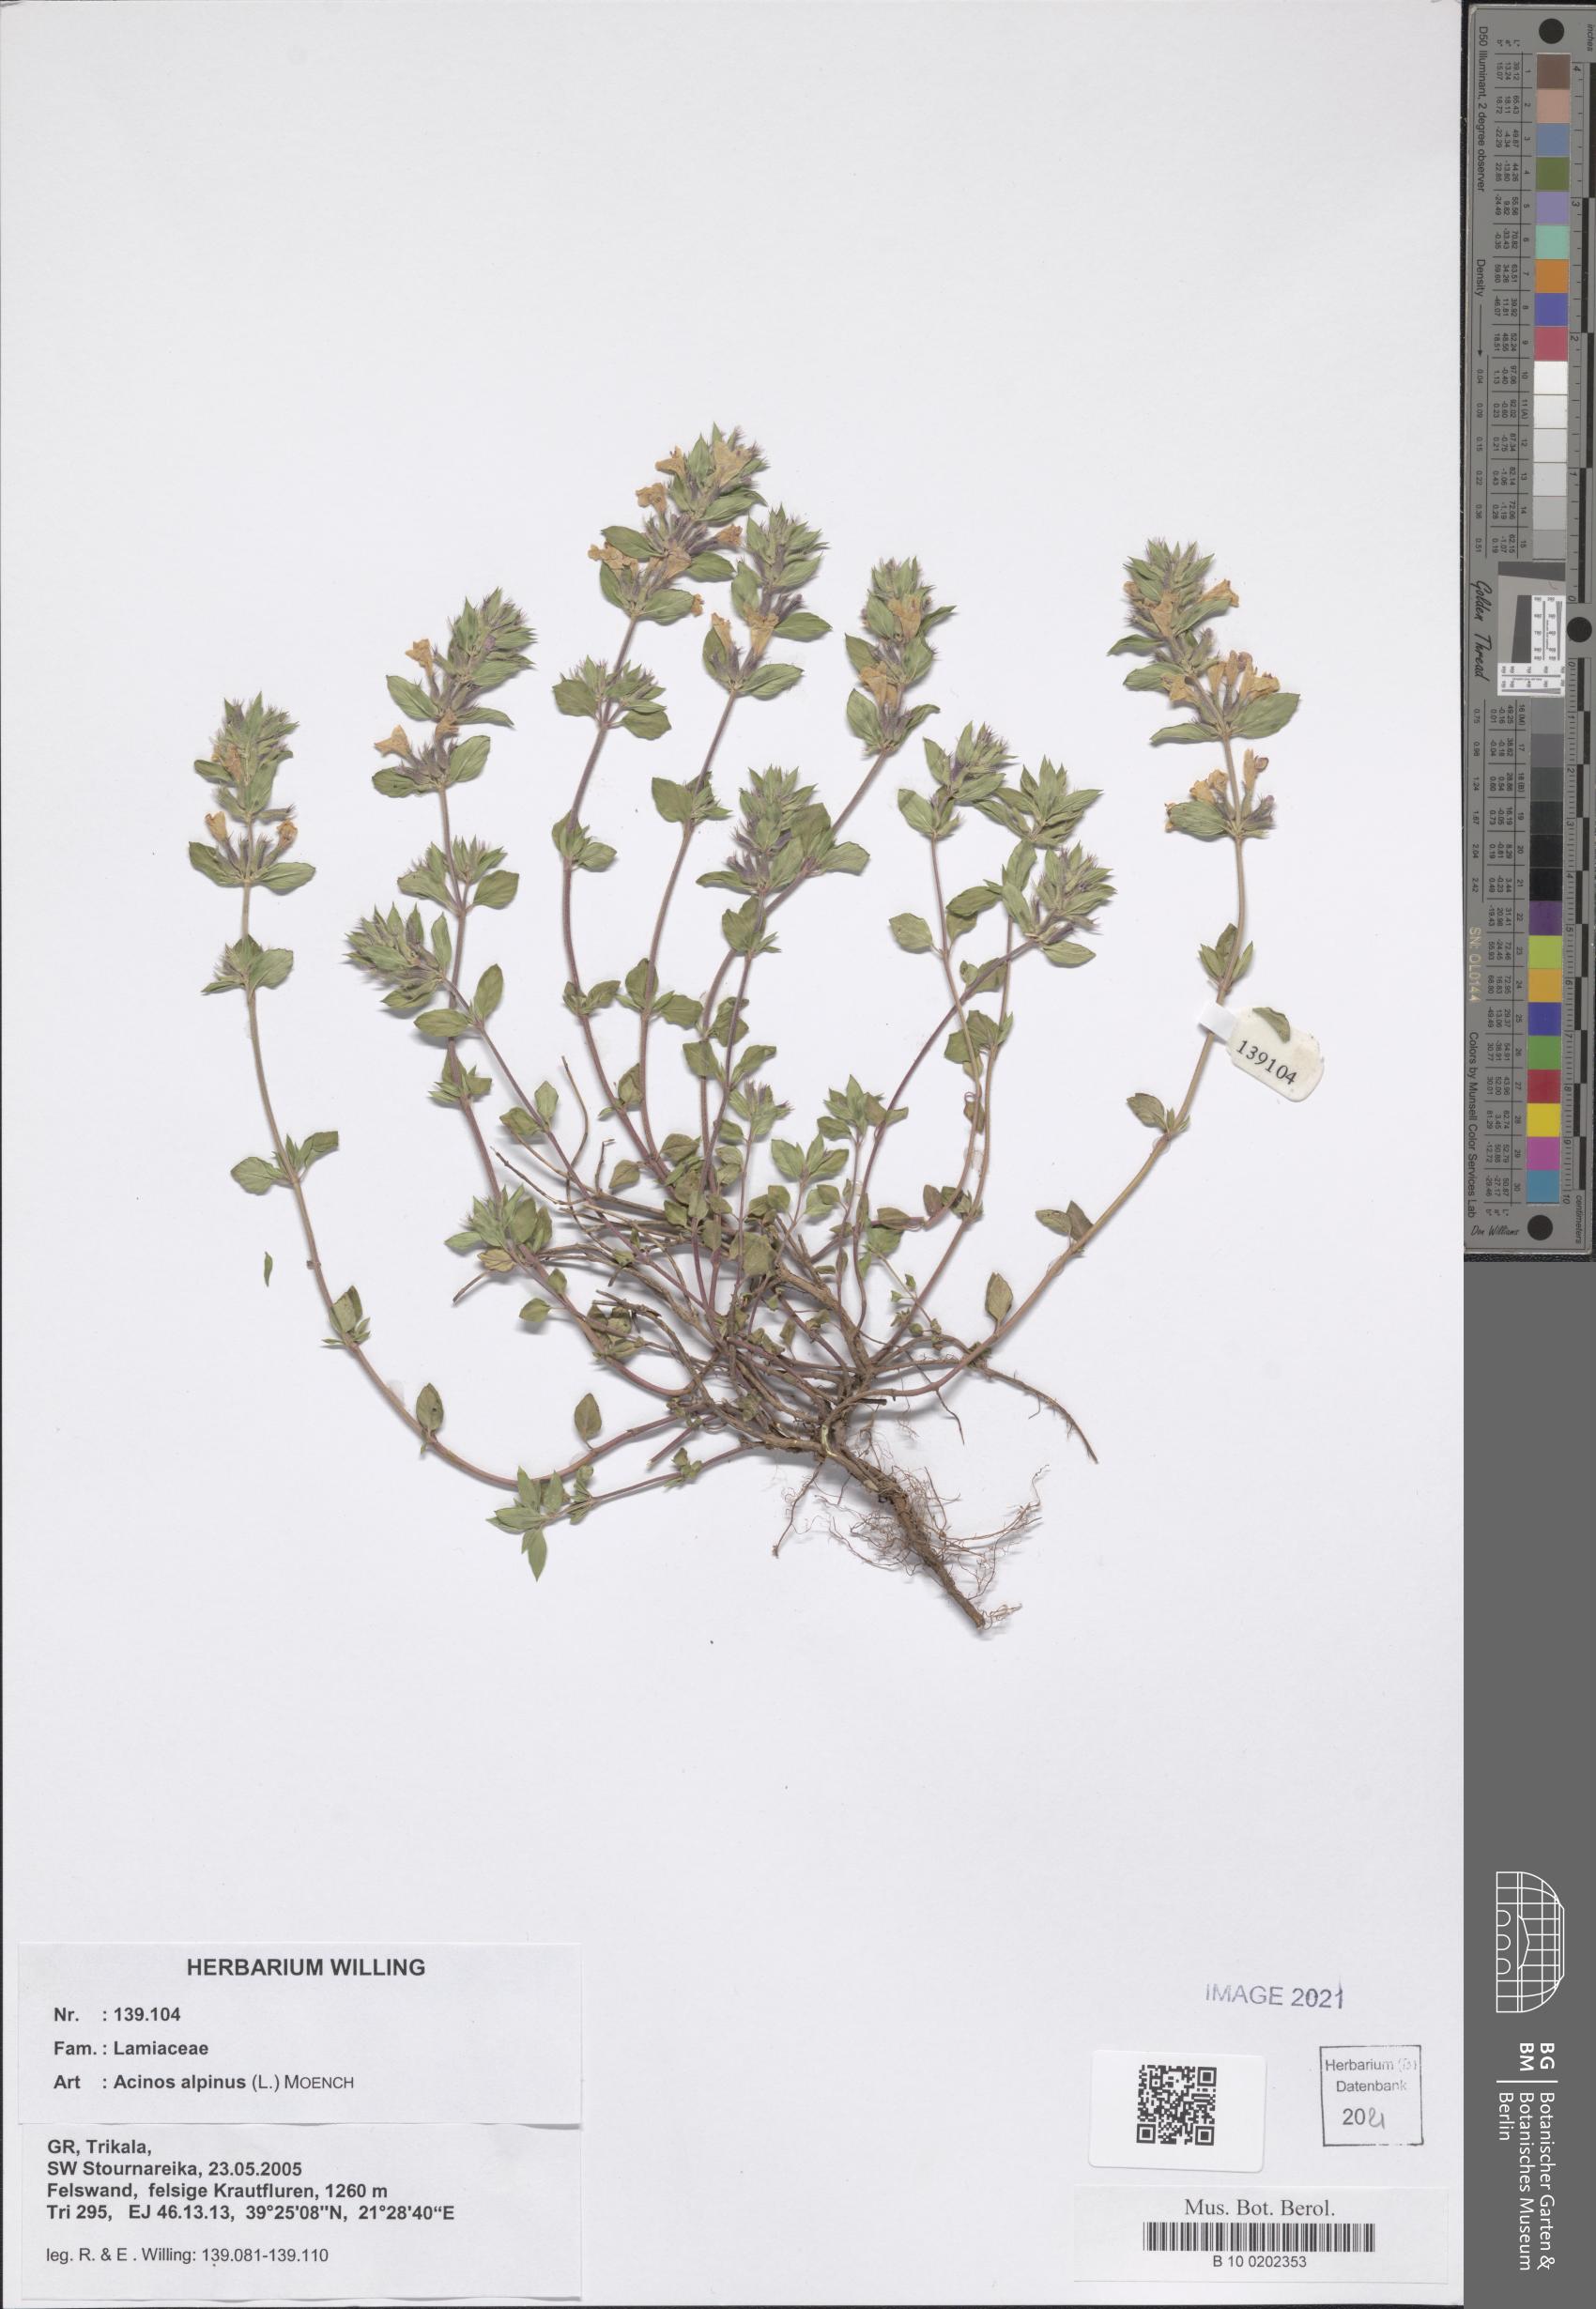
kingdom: Plantae
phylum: Tracheophyta
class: Magnoliopsida
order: Lamiales
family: Lamiaceae
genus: Clinopodium
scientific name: Clinopodium alpinum
